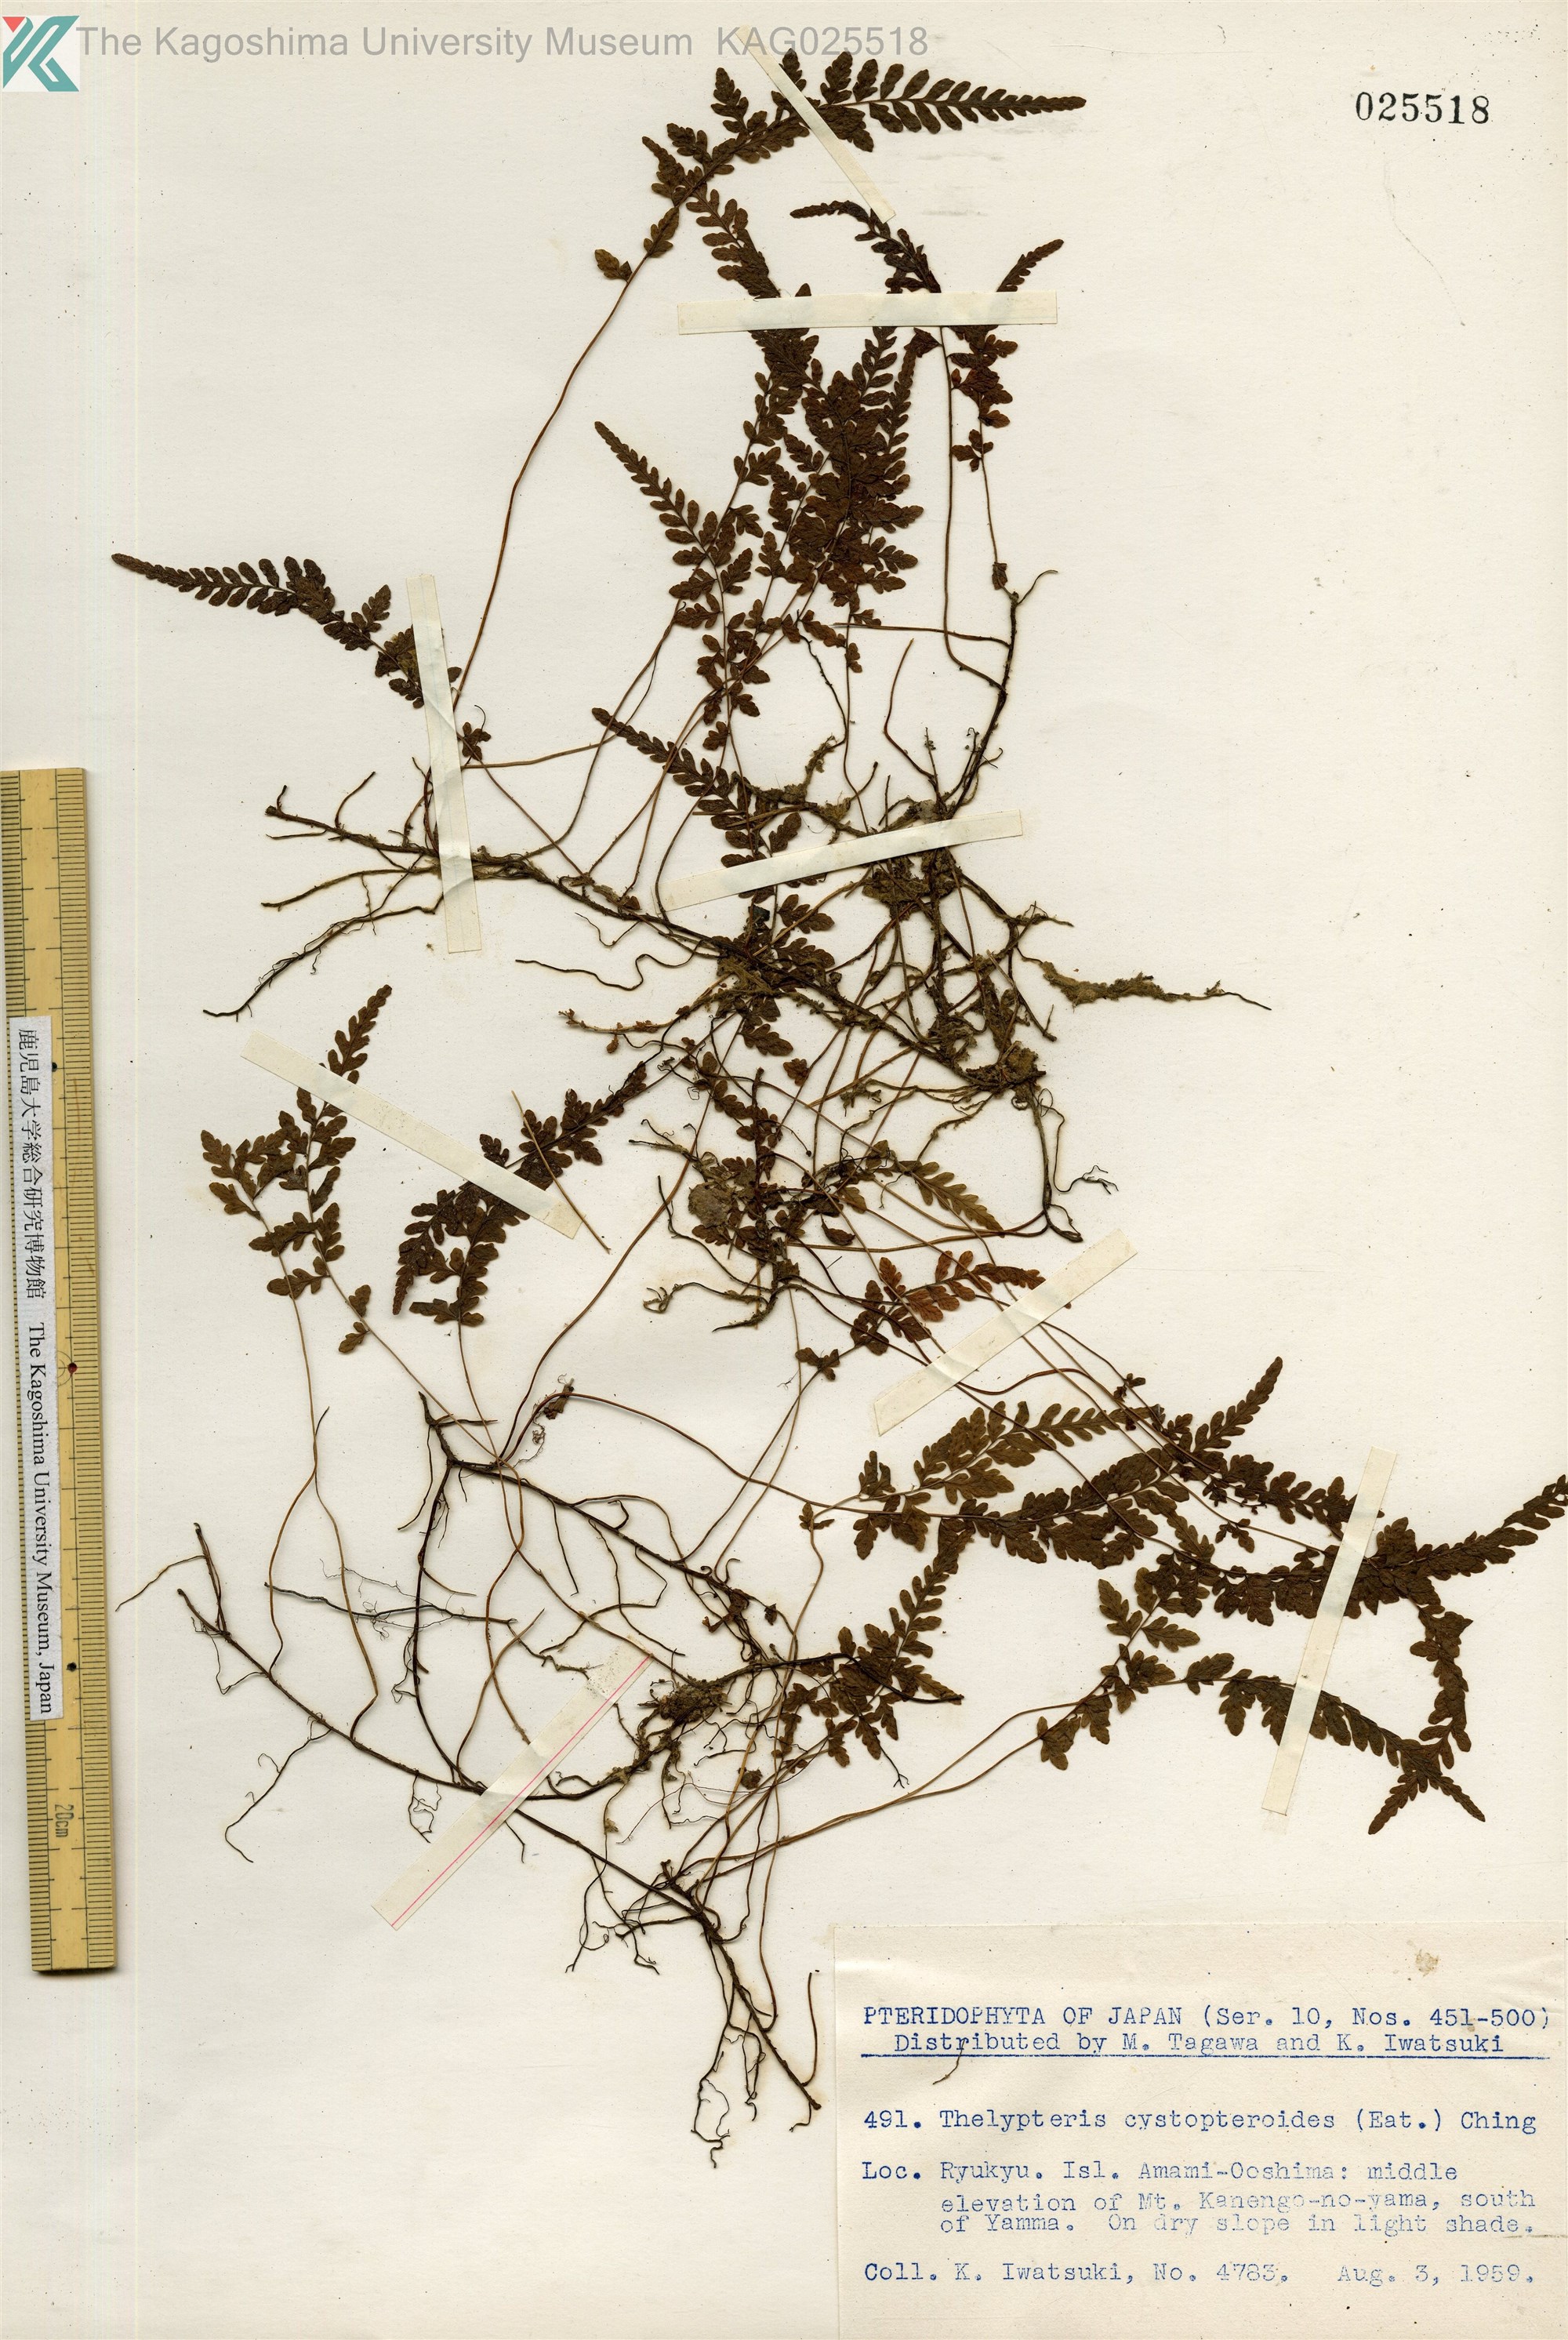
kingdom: Plantae
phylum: Tracheophyta
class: Polypodiopsida
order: Polypodiales
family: Thelypteridaceae
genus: Amauropelta
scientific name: Amauropelta cystopteroides
